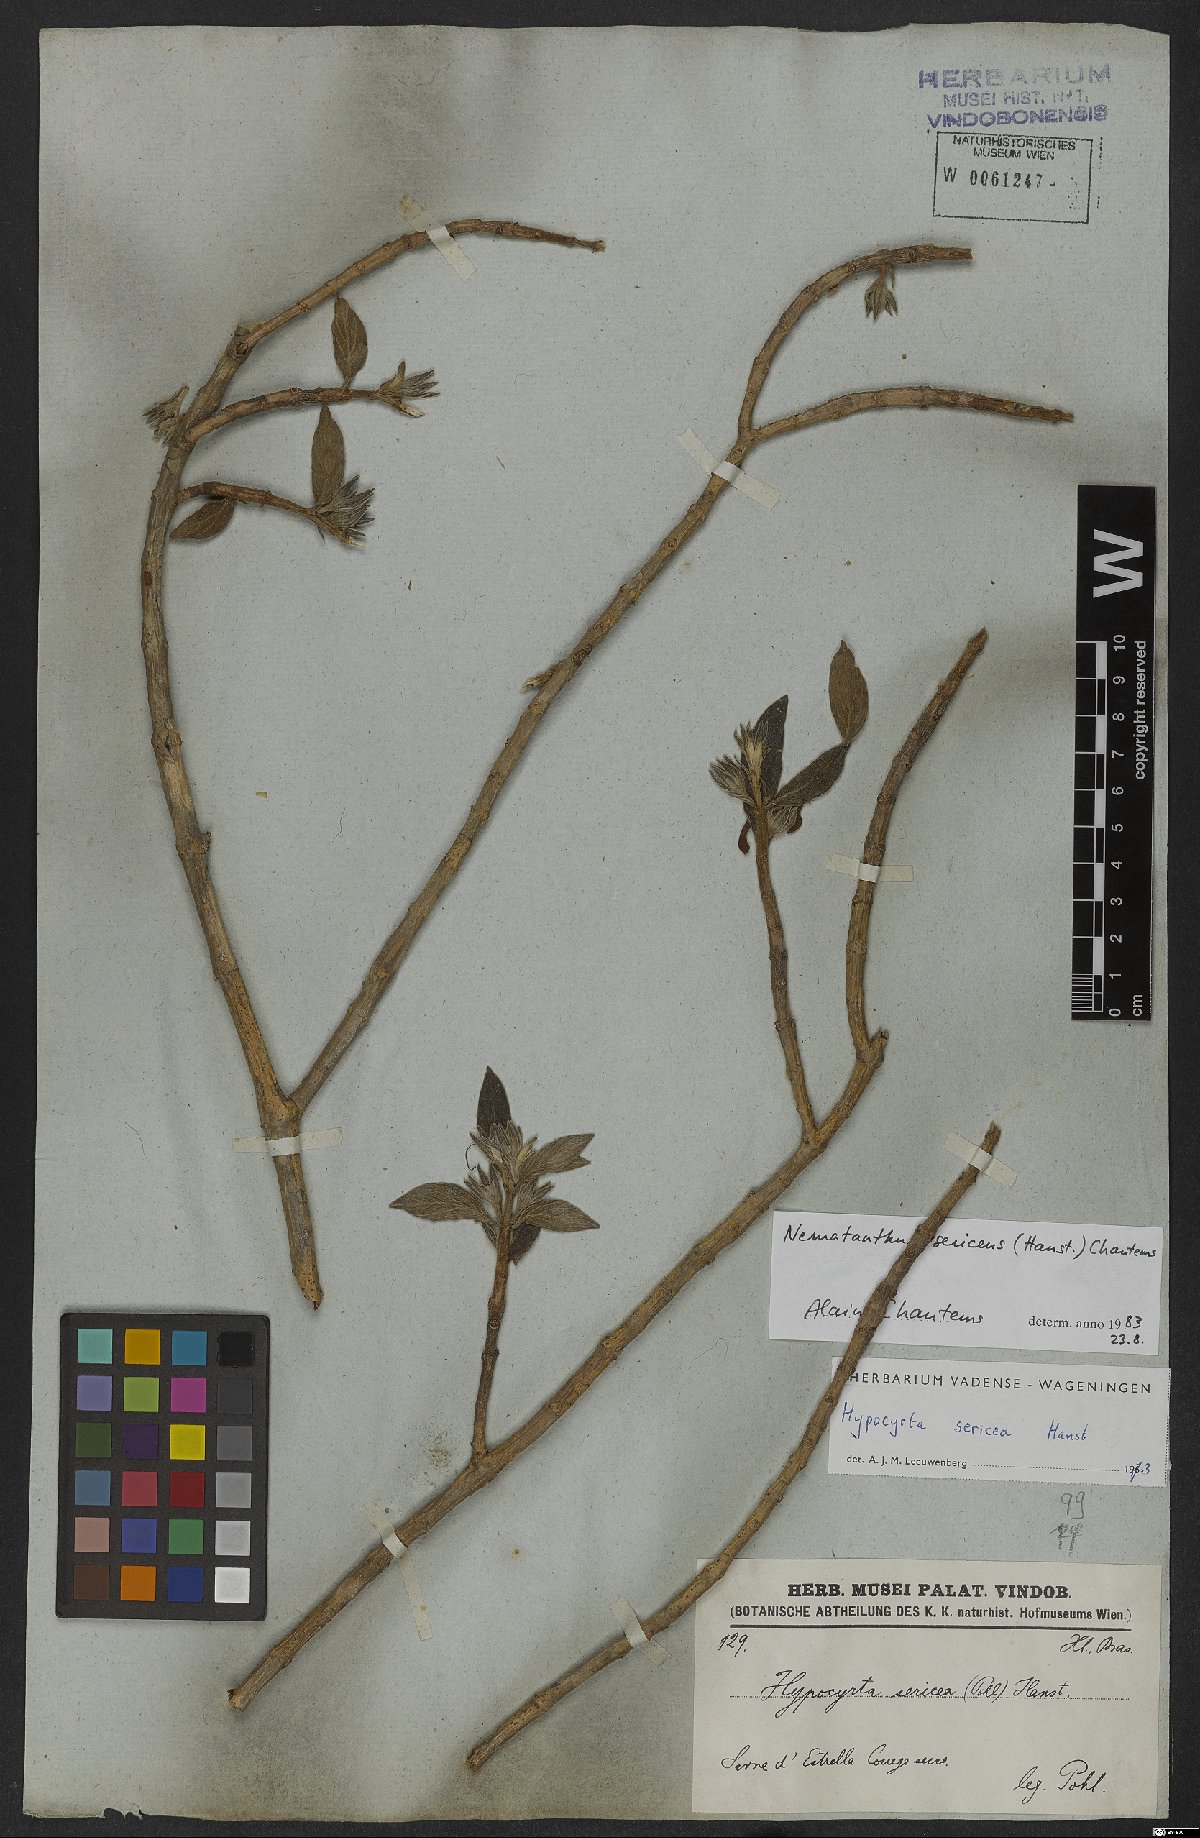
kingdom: Plantae
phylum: Tracheophyta
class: Magnoliopsida
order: Lamiales
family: Gesneriaceae
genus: Nematanthus
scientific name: Nematanthus sericeus
